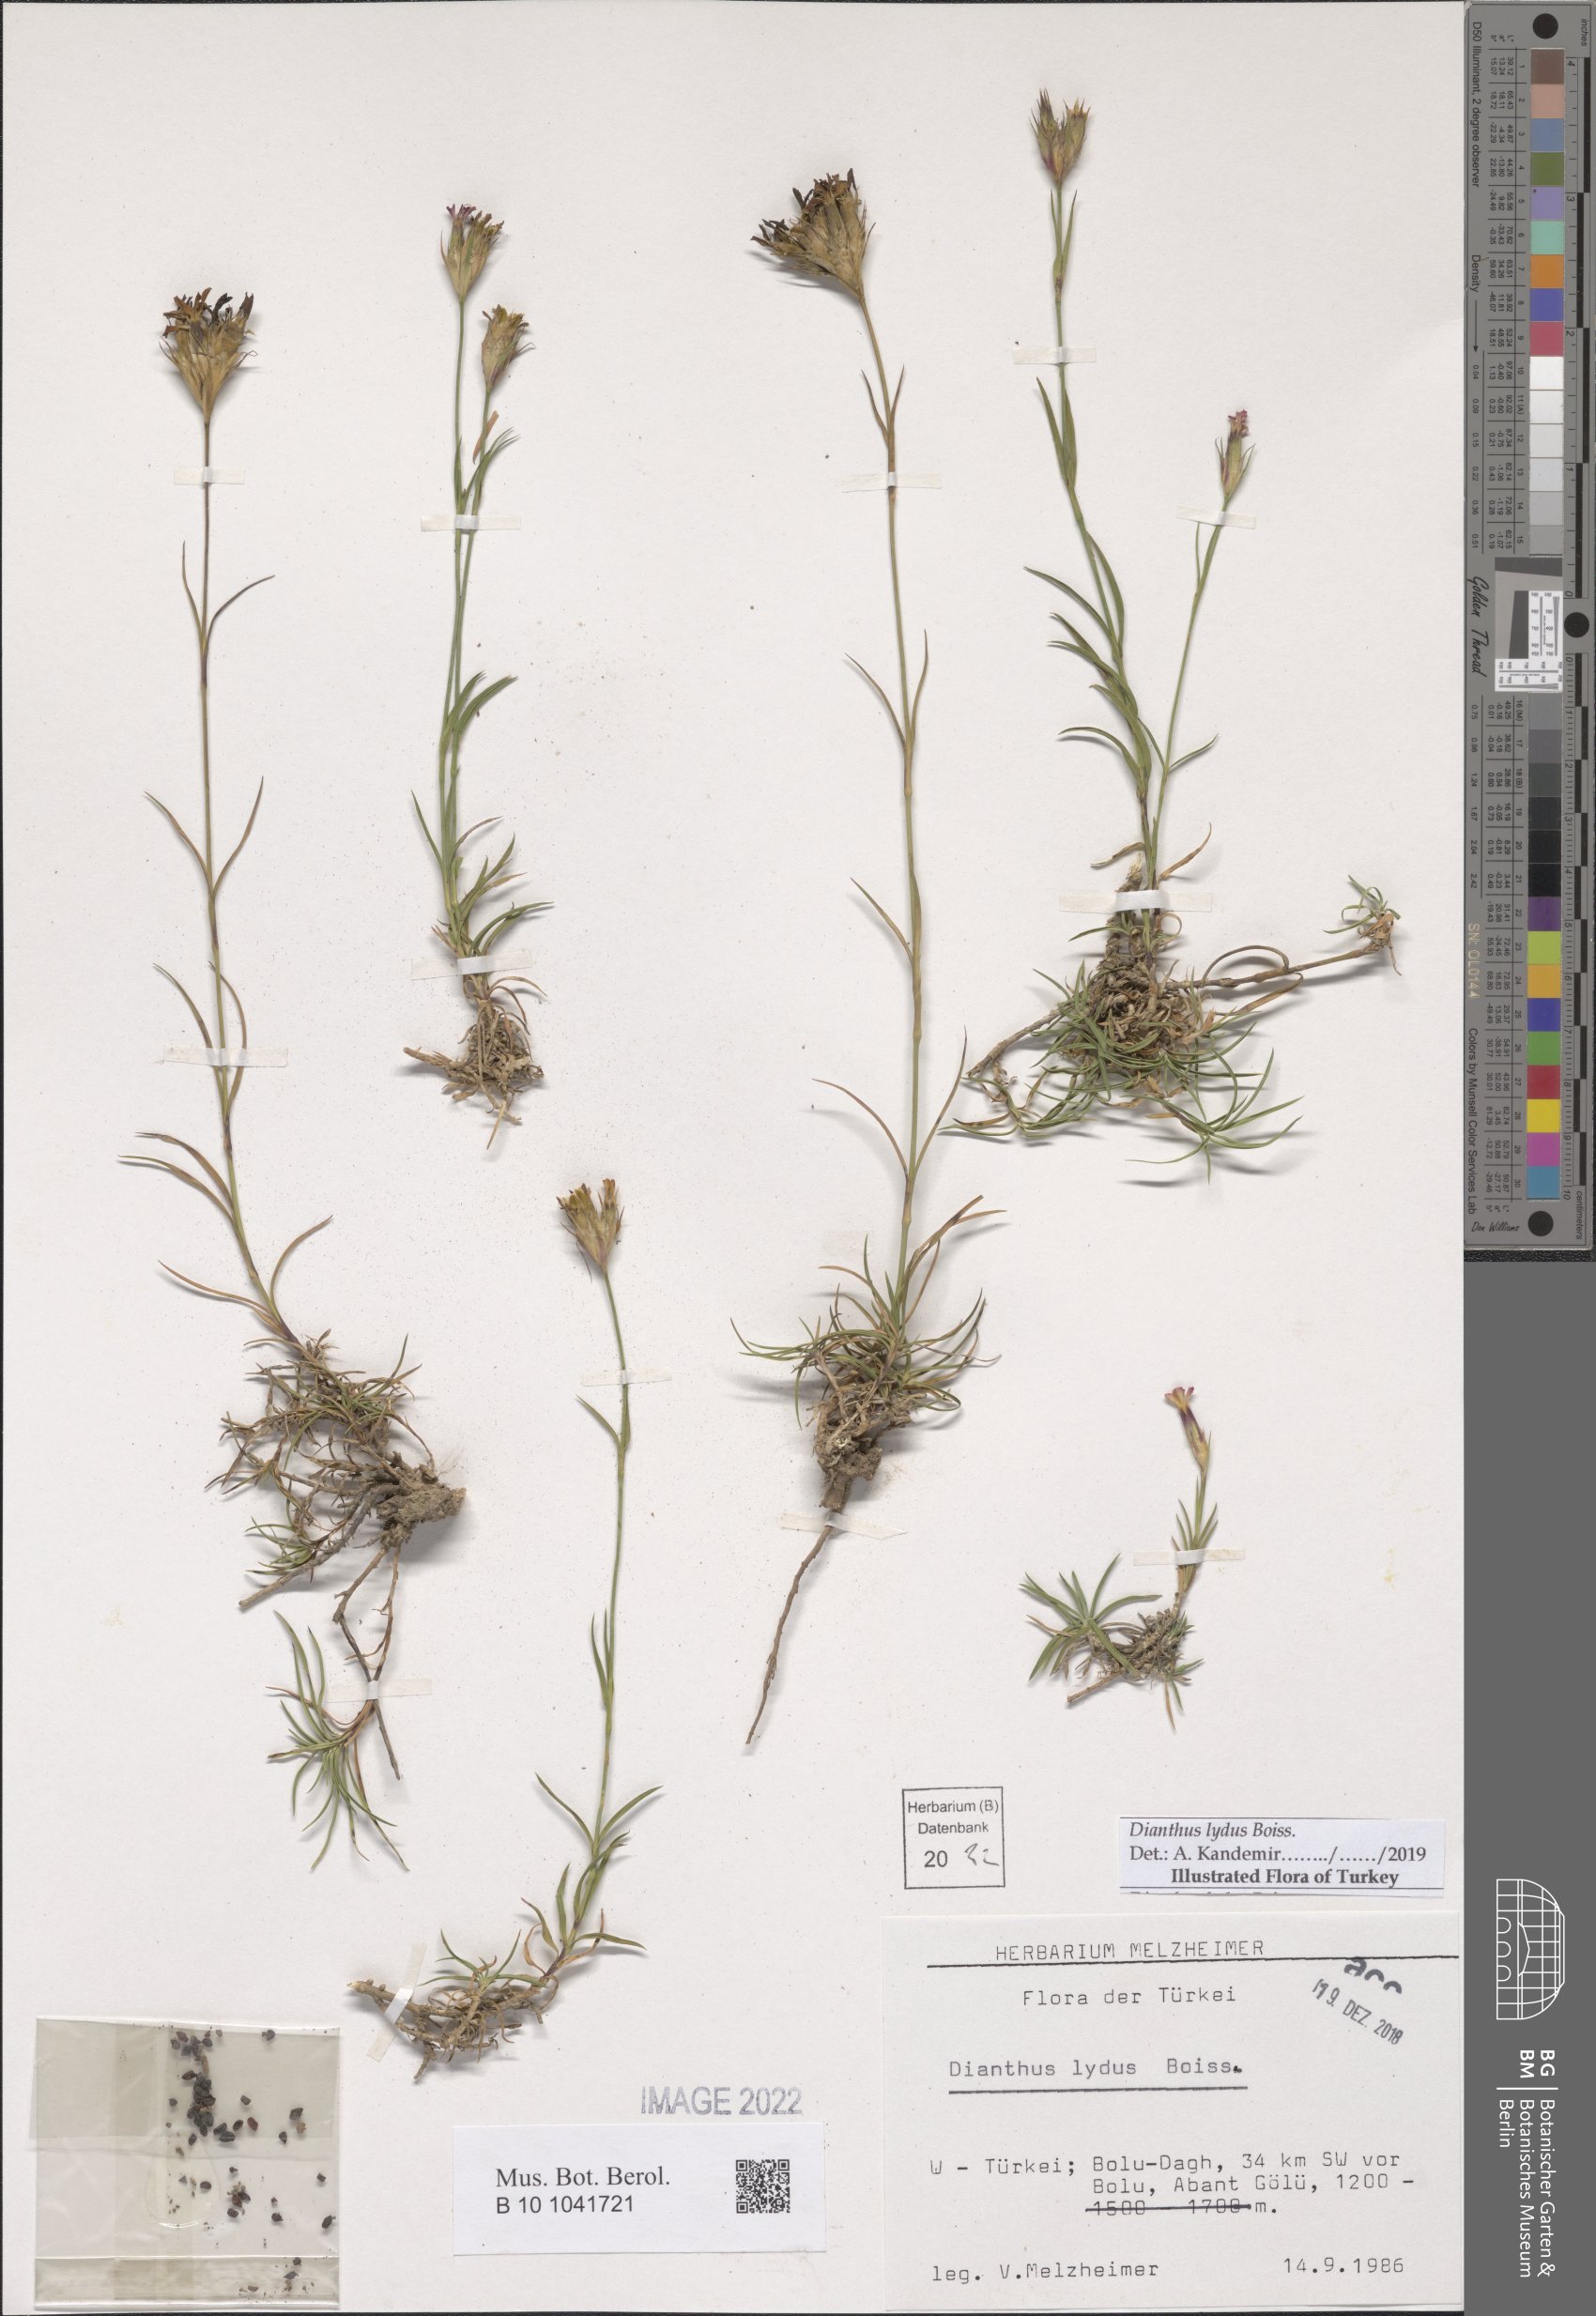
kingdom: Plantae
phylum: Tracheophyta
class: Magnoliopsida
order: Caryophyllales
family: Caryophyllaceae
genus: Dianthus
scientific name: Dianthus lydus
